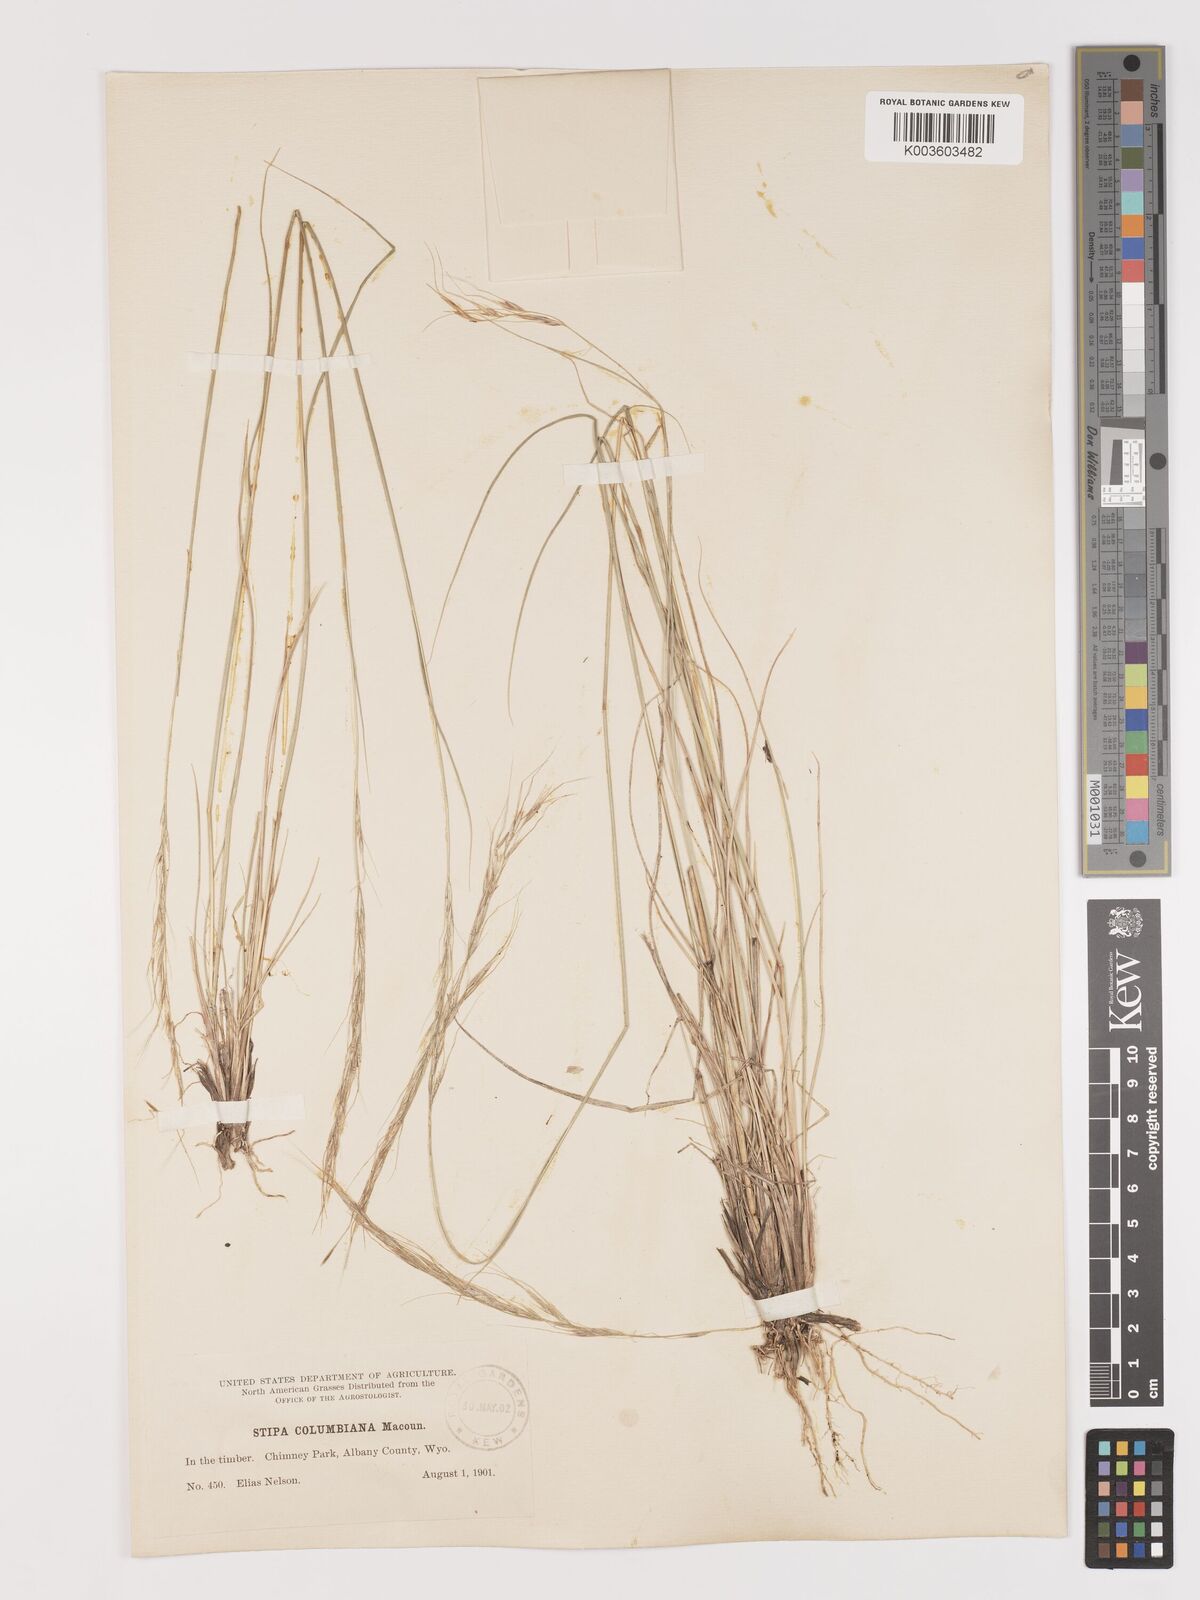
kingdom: Plantae
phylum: Tracheophyta
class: Liliopsida
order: Poales
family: Poaceae
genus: Eriocoma
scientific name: Eriocoma nelsonii
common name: Nelson's needlegrass
